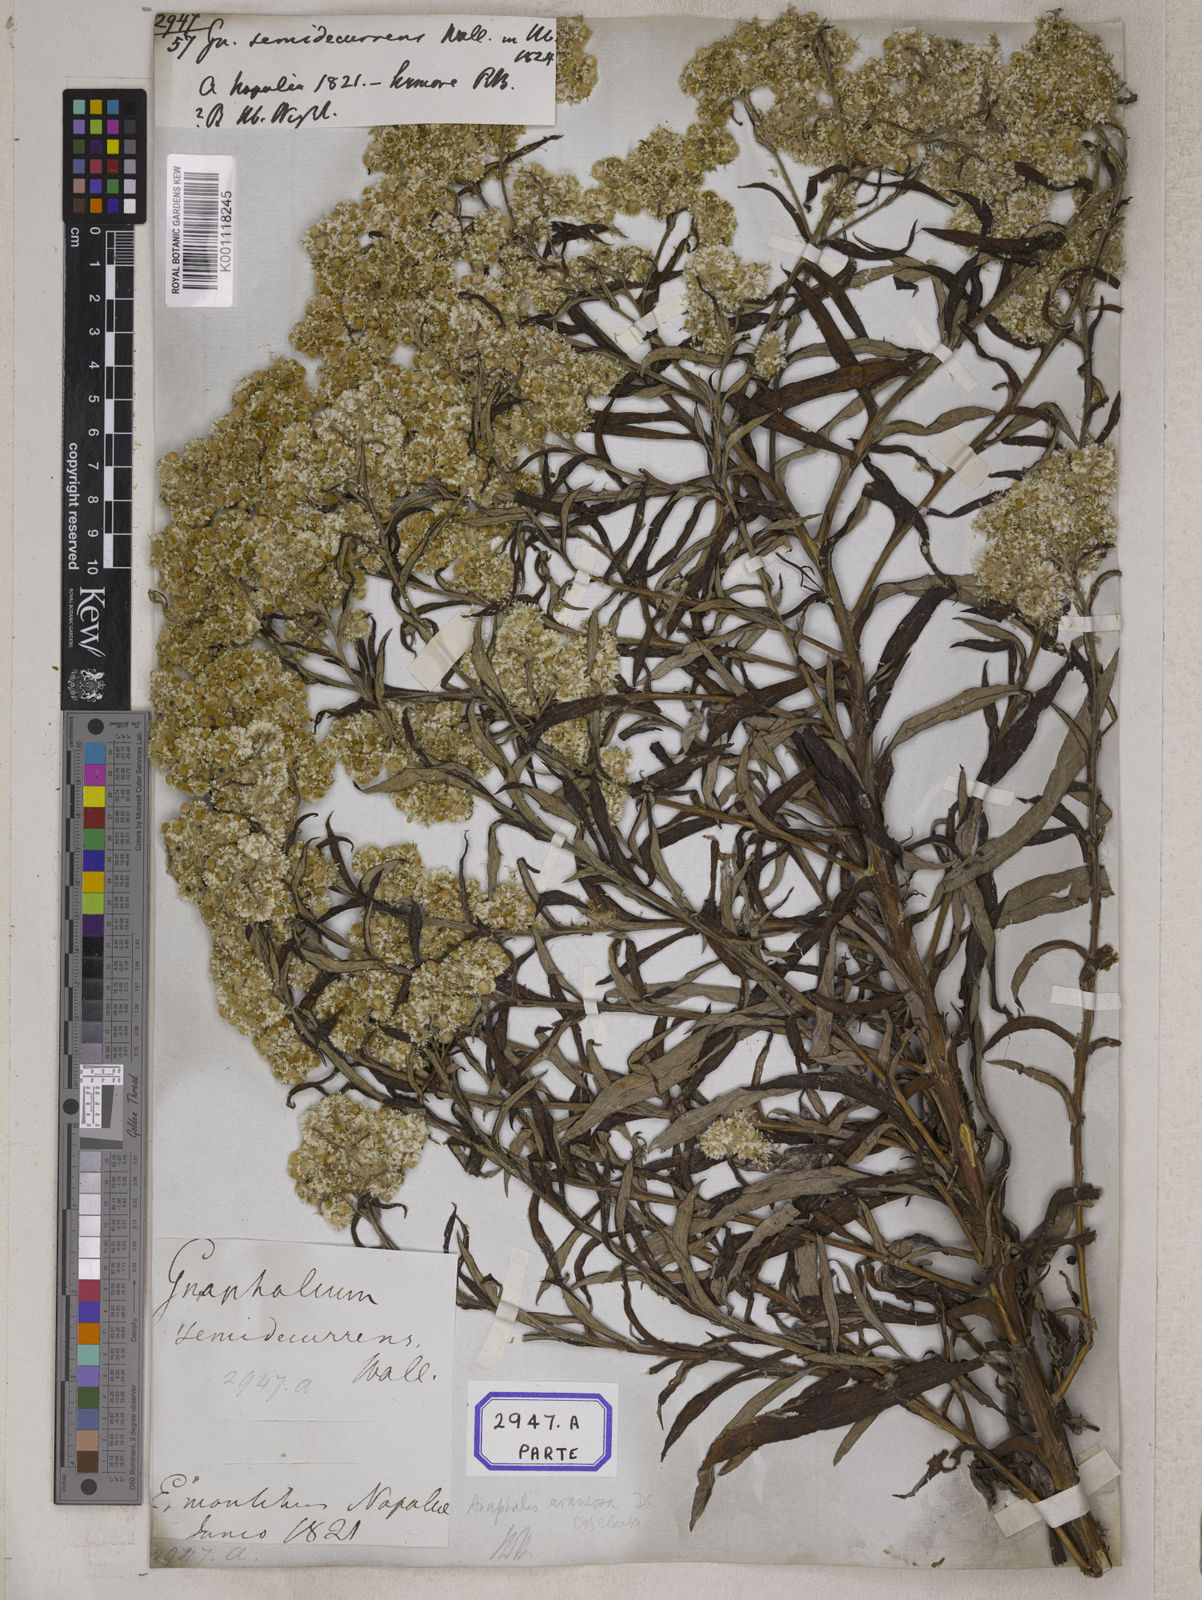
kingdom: Plantae
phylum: Tracheophyta
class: Magnoliopsida
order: Asterales
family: Asteraceae
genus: Anaphalis
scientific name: Anaphalis busua
